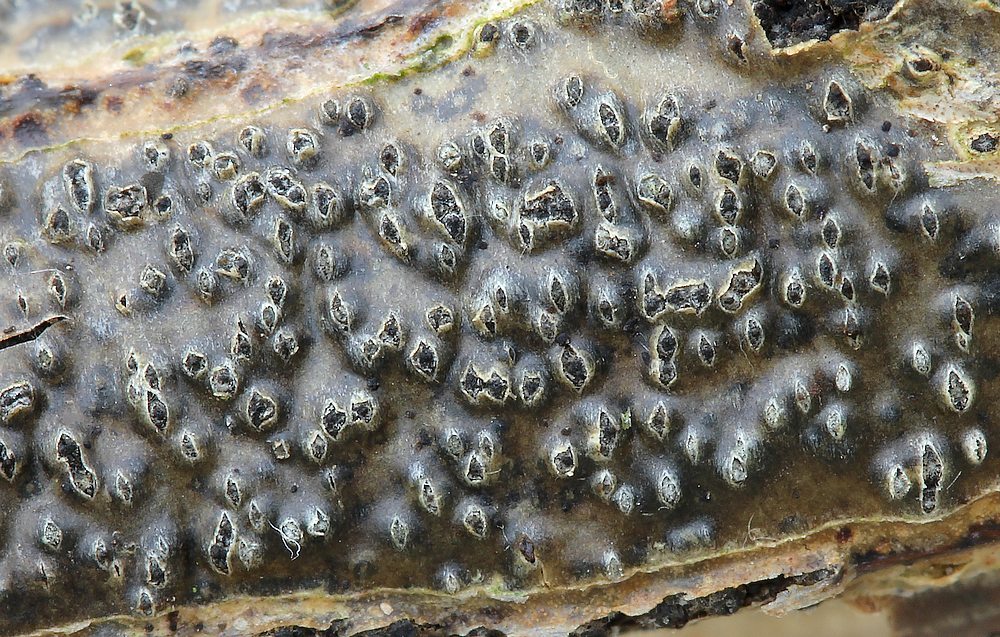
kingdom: Fungi
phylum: Ascomycota
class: Dothideomycetes
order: Pleosporales
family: Cucurbitariaceae
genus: Cucurbitaria
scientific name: Cucurbitaria spartii
